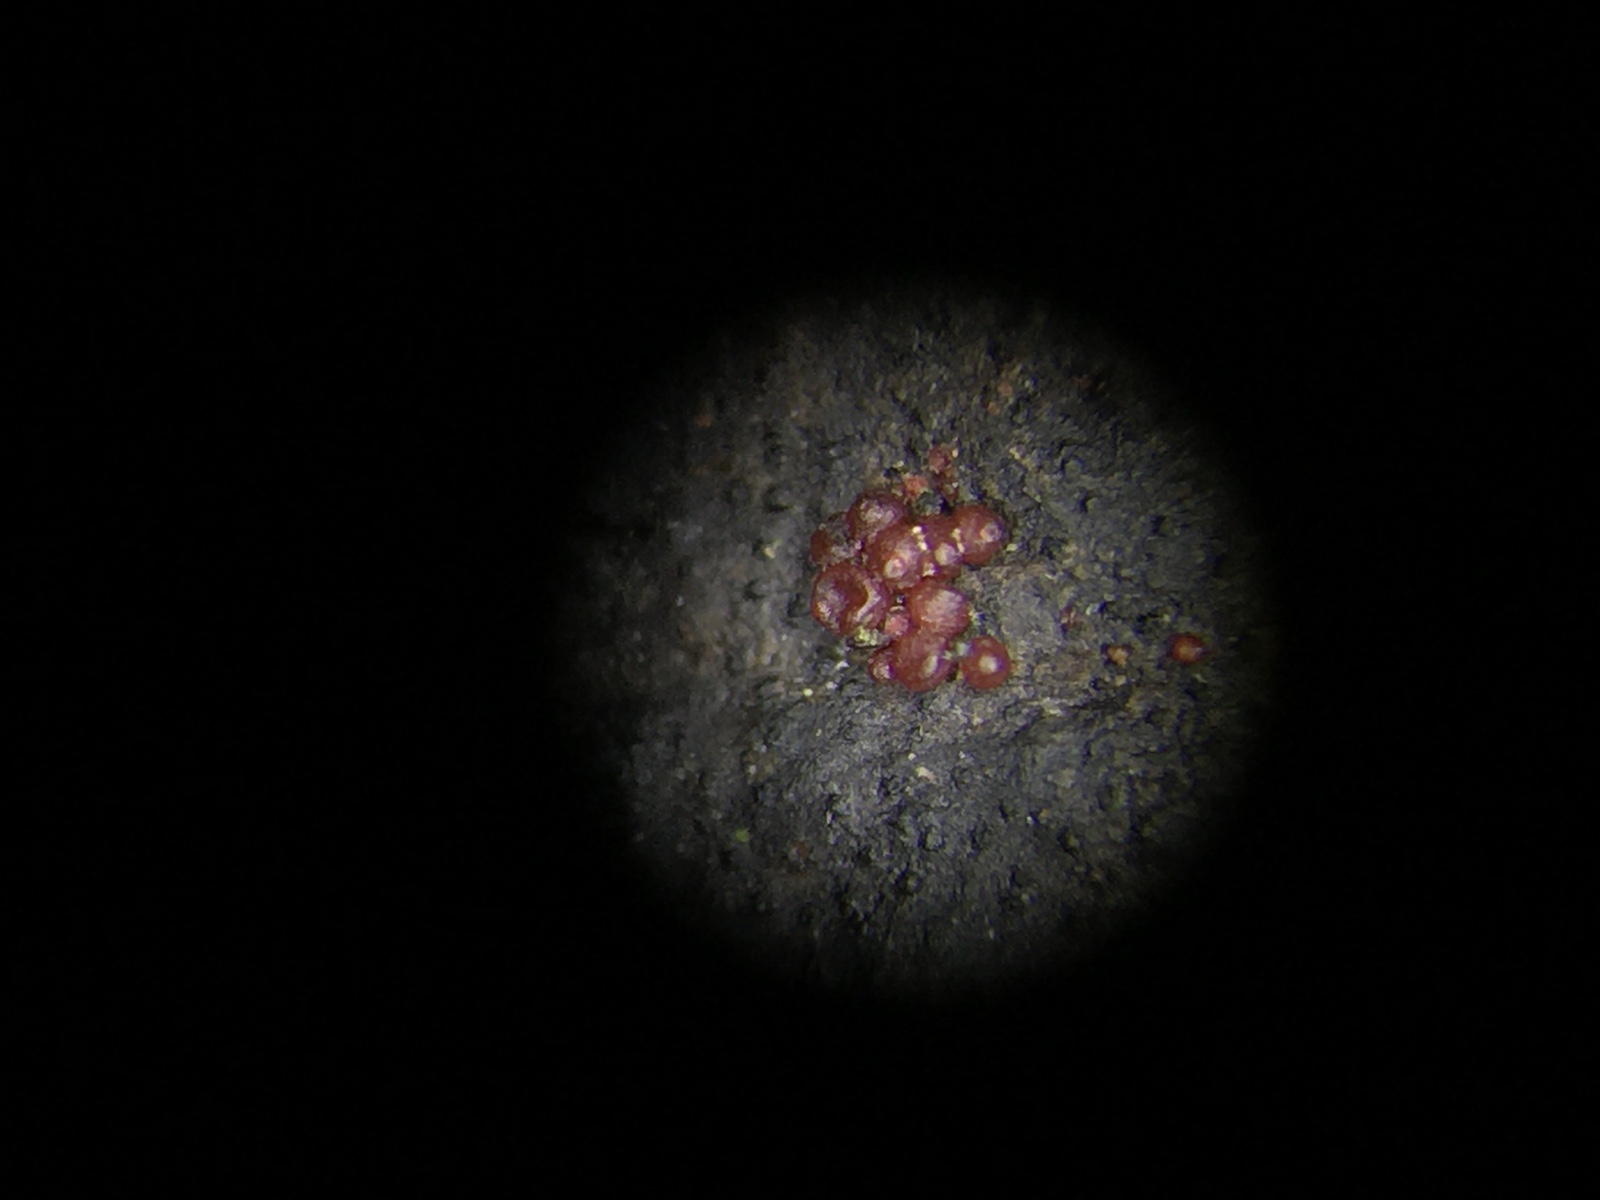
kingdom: Fungi
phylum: Ascomycota
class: Sordariomycetes
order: Hypocreales
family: Nectriaceae
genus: Dialonectria
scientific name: Dialonectria diatrypicola
